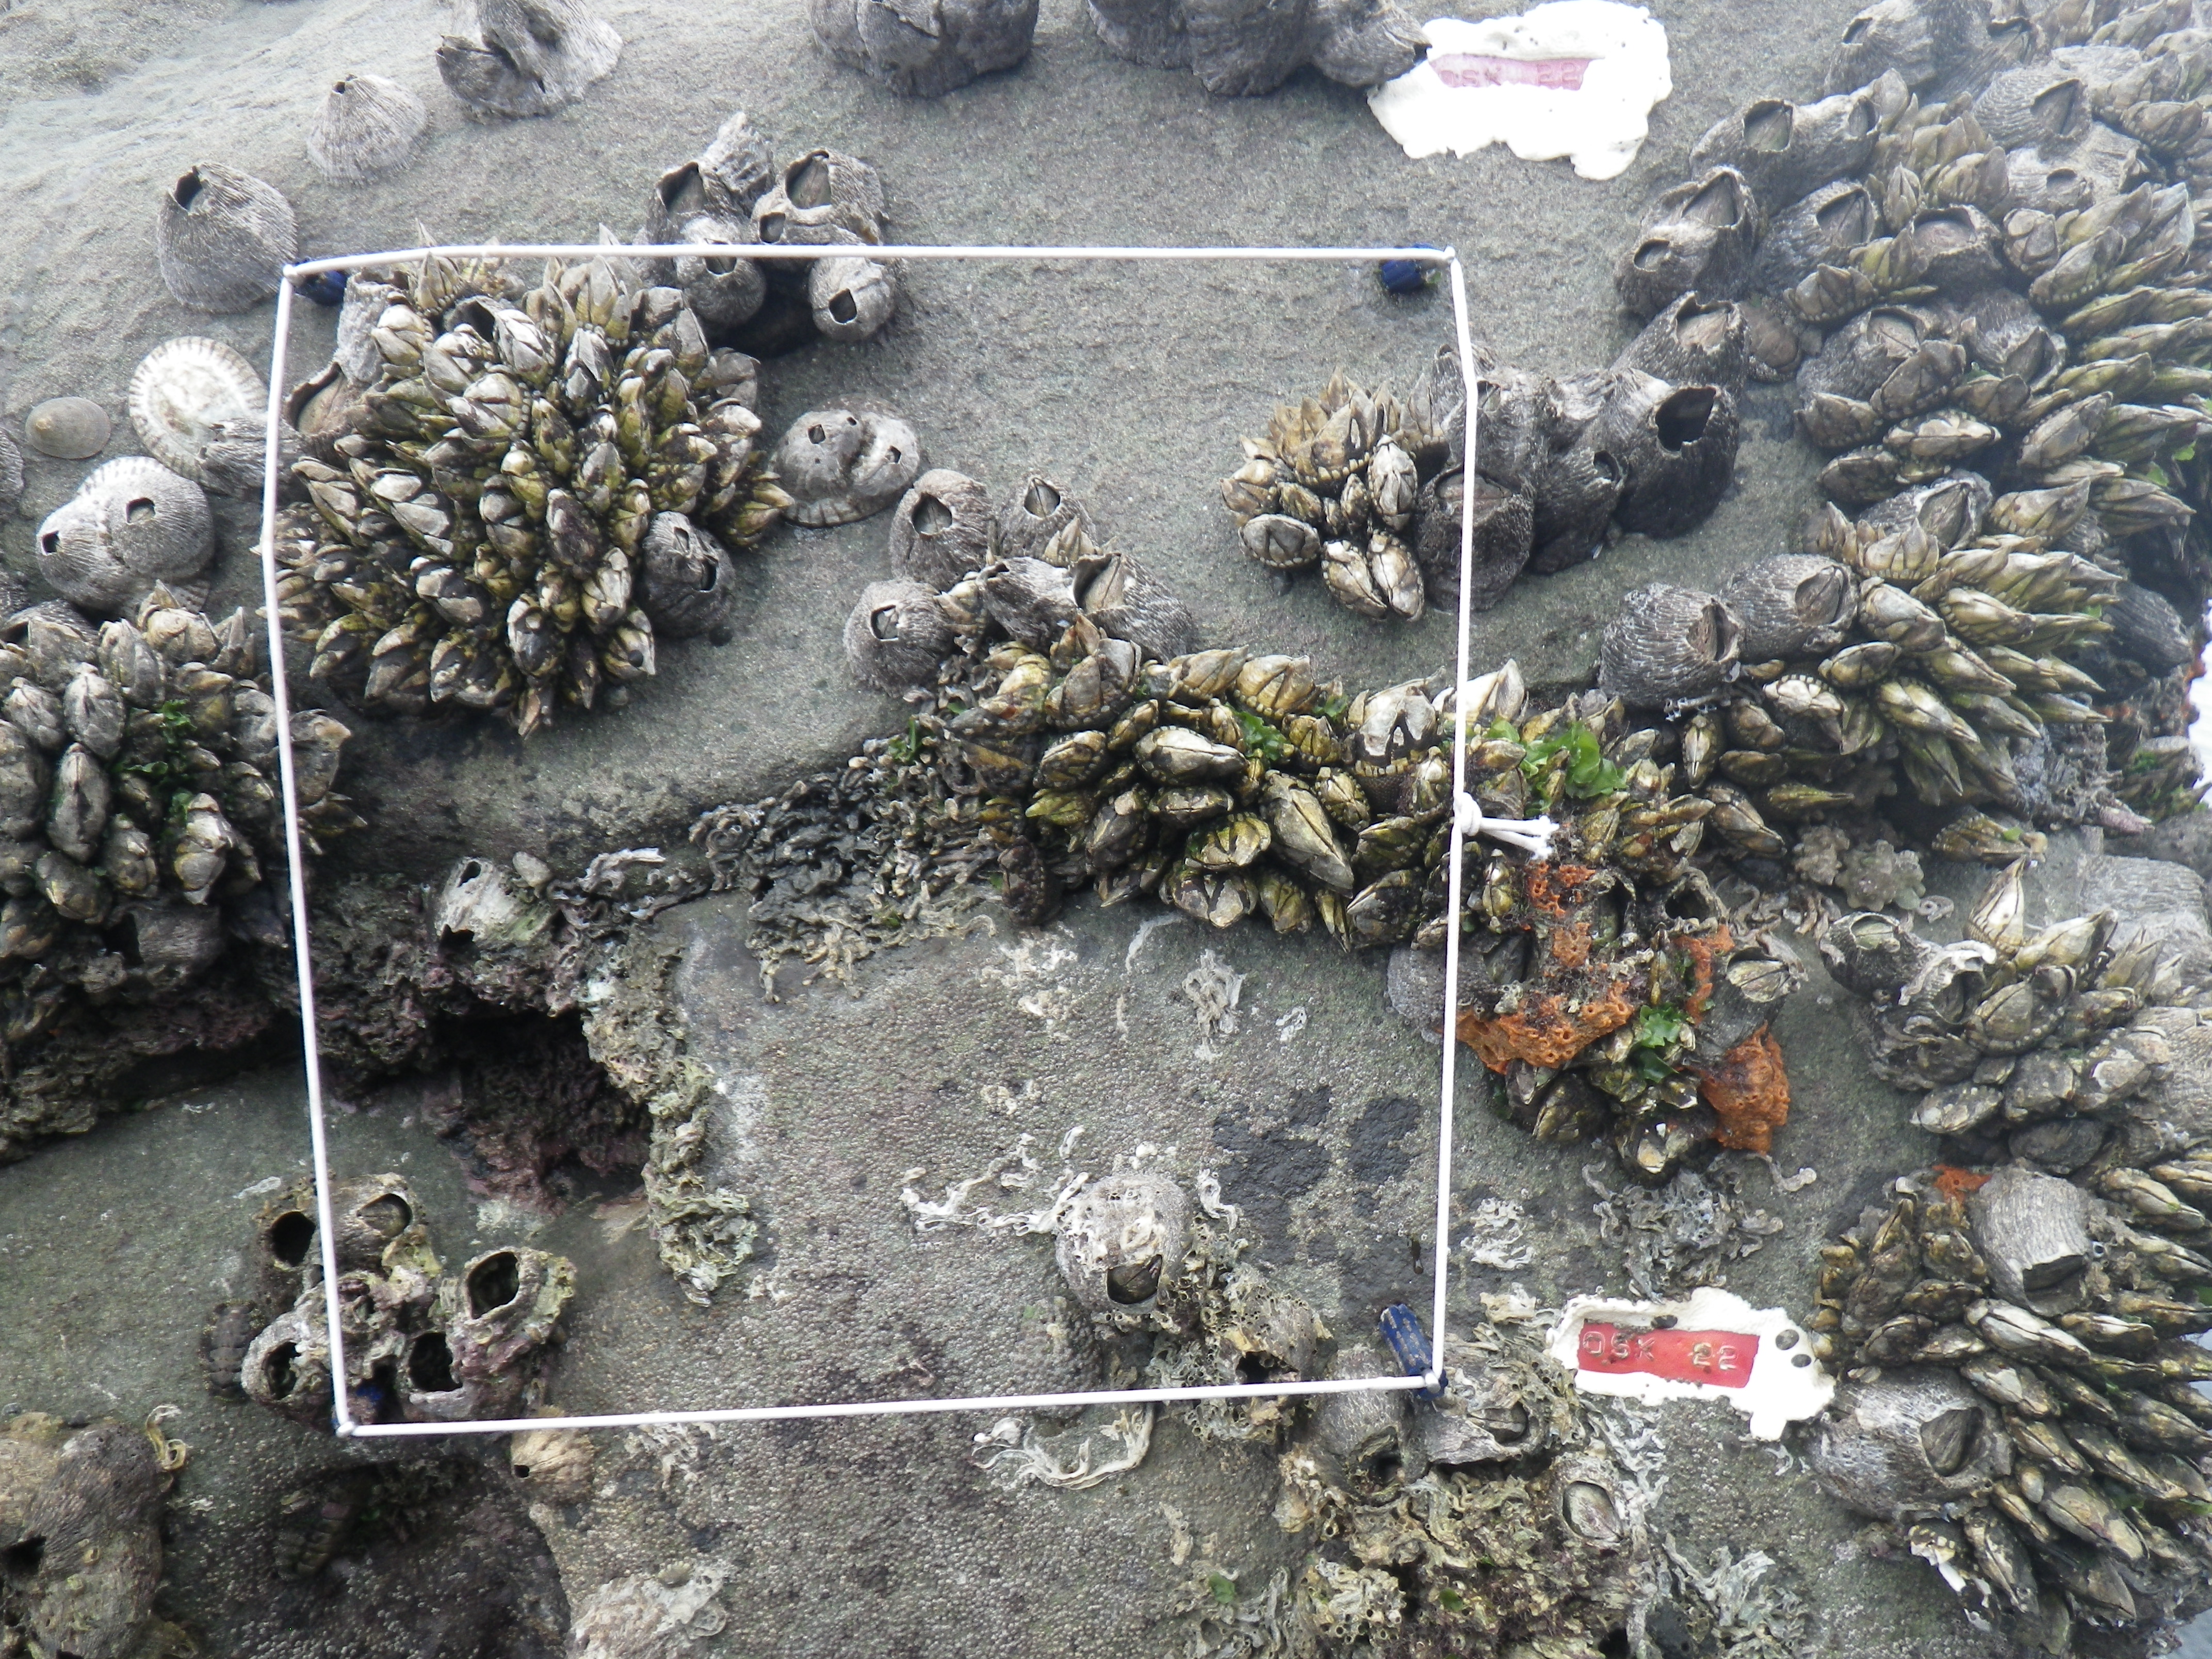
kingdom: Animalia
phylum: Arthropoda
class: Maxillopoda
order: Sessilia
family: Chthamalidae
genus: Chthamalus
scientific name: Chthamalus challengeri
